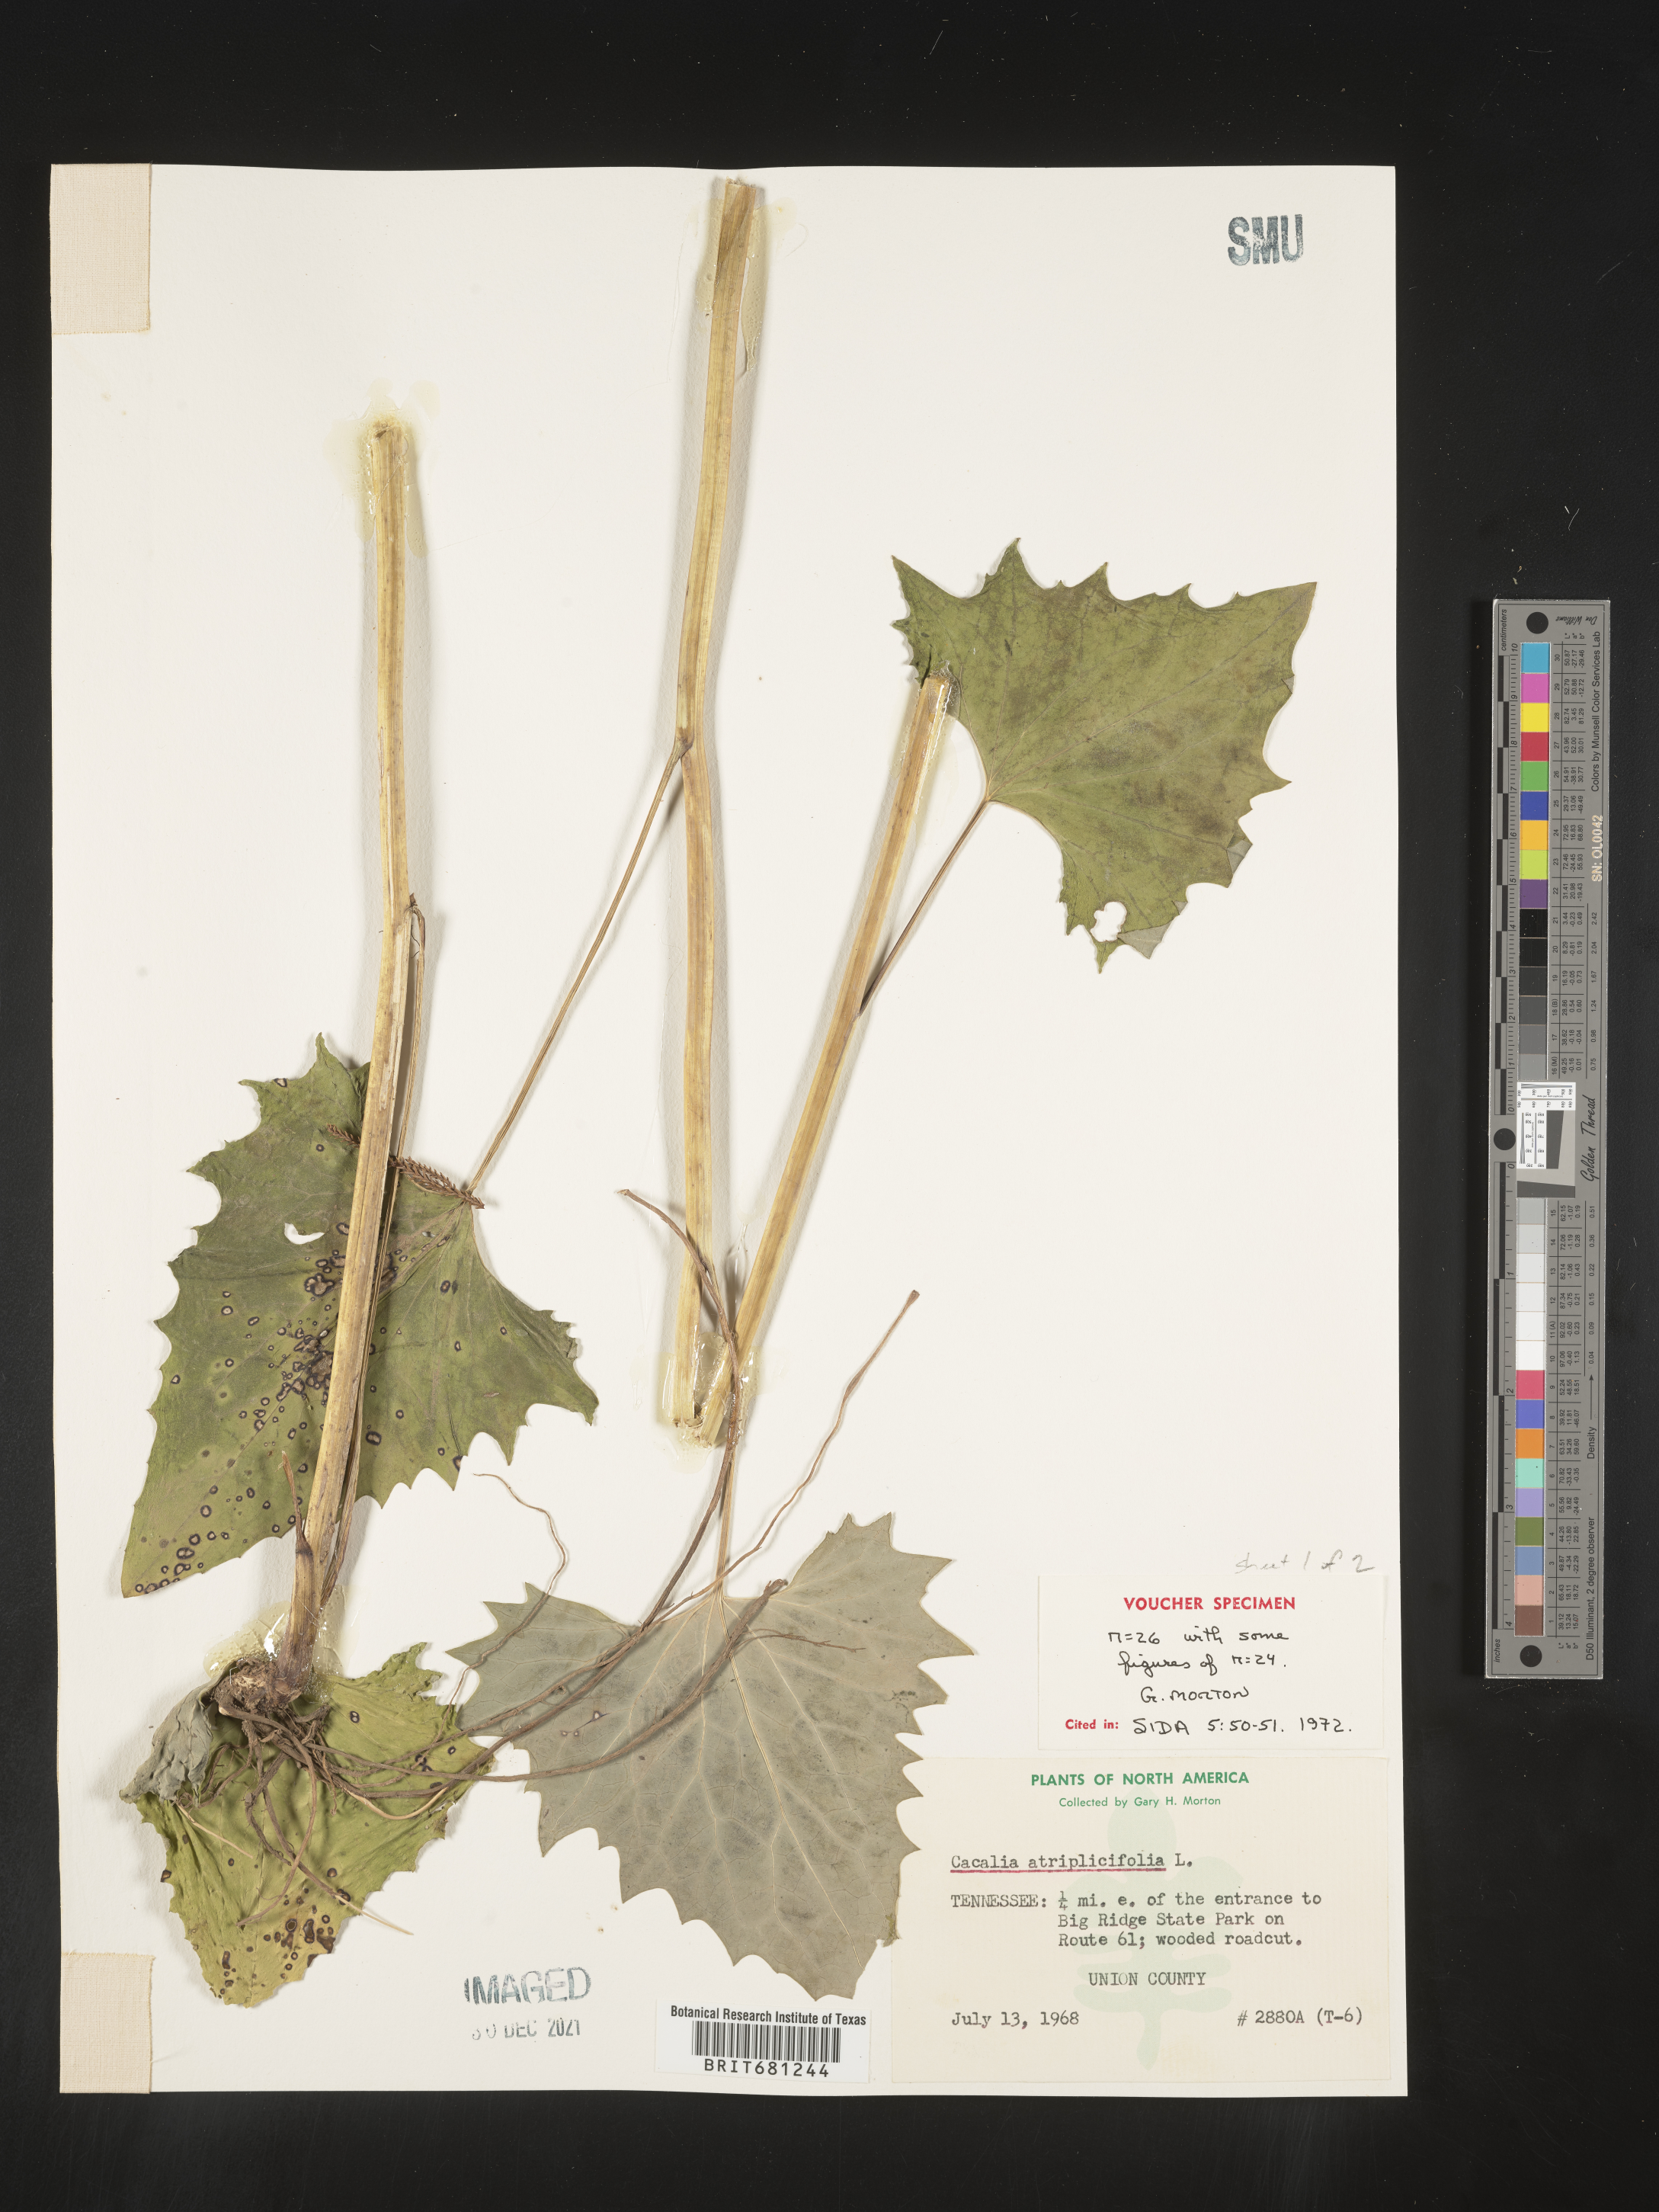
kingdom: Plantae
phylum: Tracheophyta
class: Magnoliopsida
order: Asterales
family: Asteraceae
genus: Arnoglossum
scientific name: Arnoglossum atriplicifolium
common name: Pale indian-plantain
